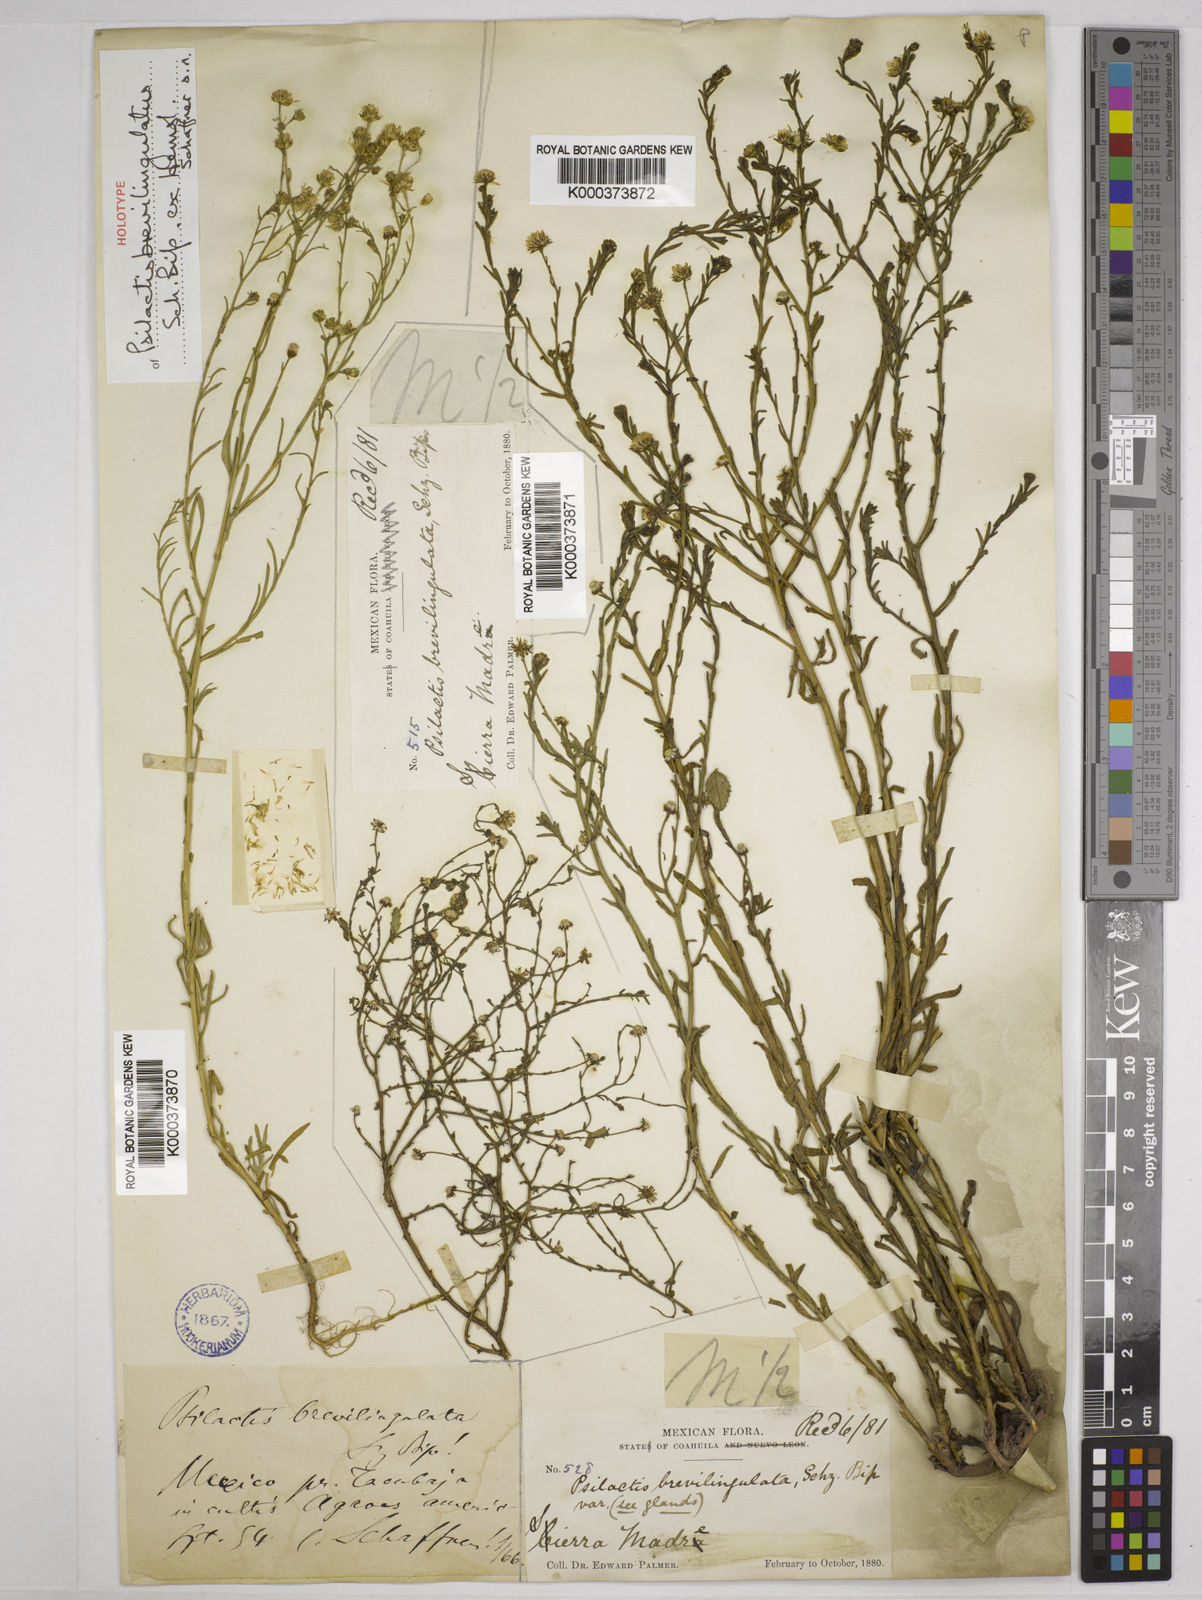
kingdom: Plantae
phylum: Tracheophyta
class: Magnoliopsida
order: Asterales
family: Asteraceae
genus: Psilactis
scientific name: Psilactis
